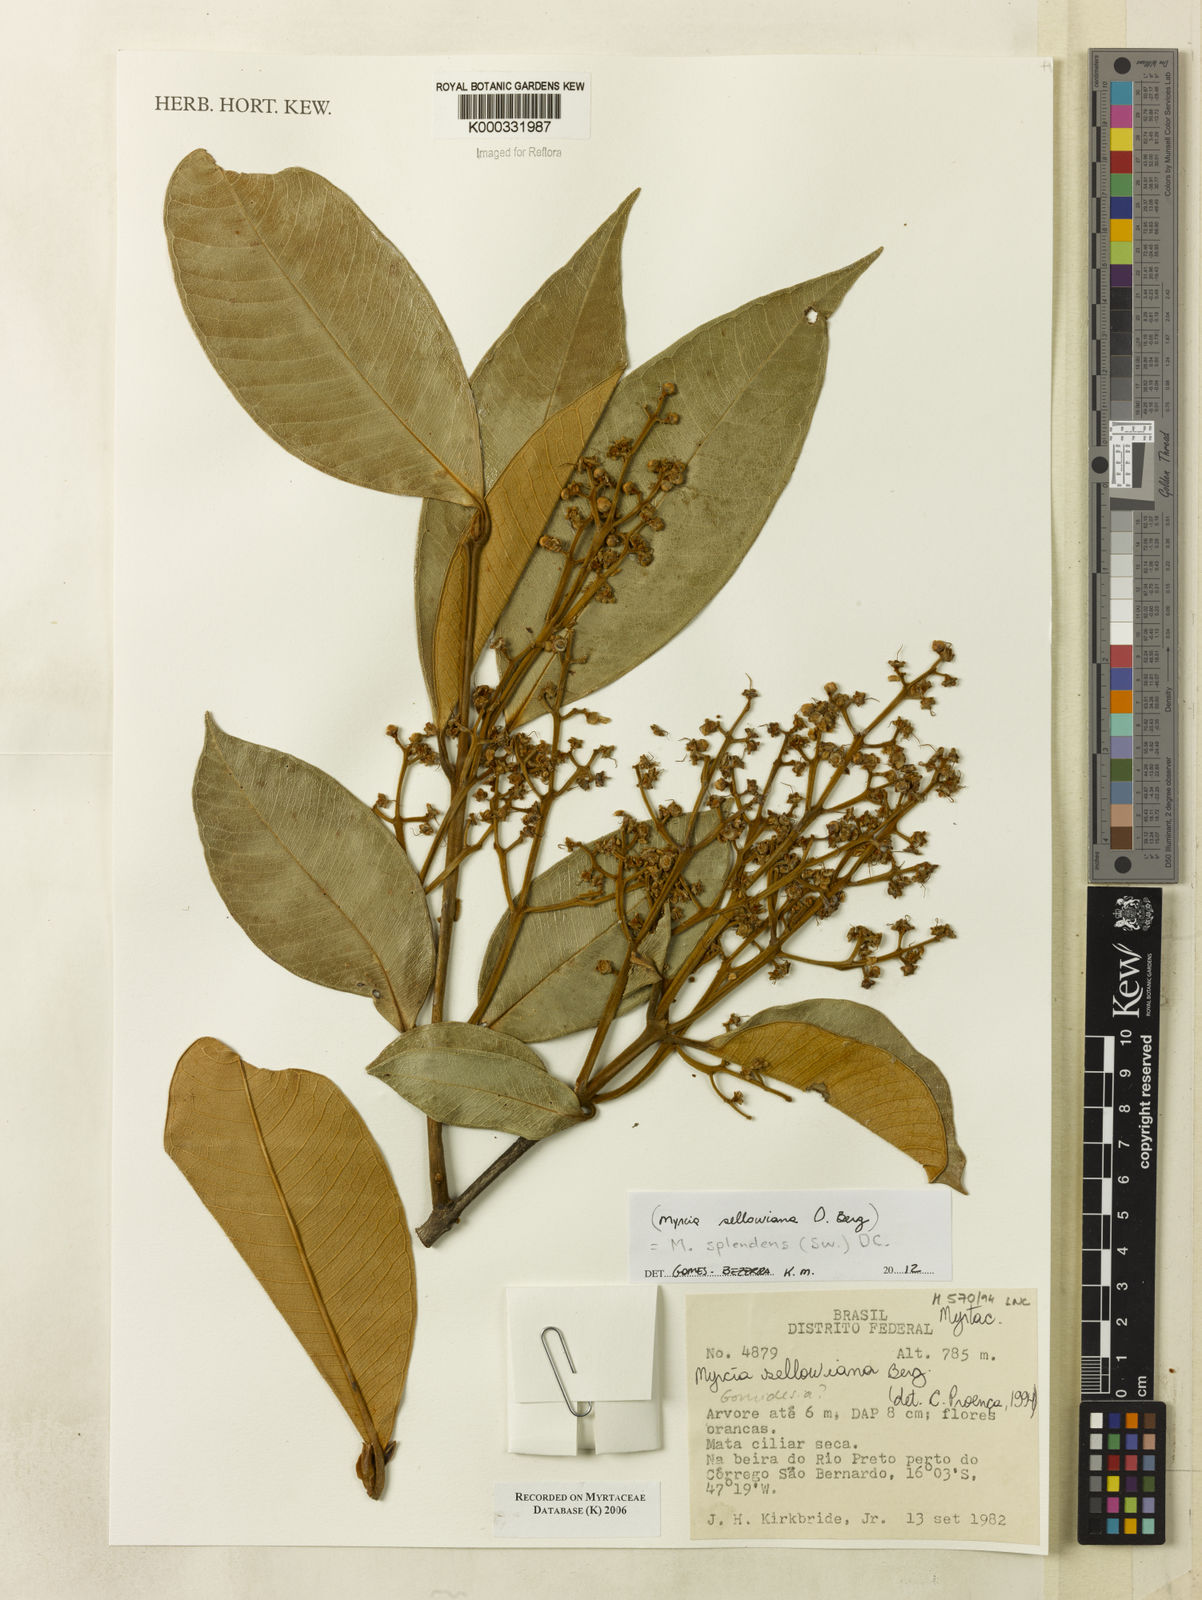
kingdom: Plantae
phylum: Tracheophyta
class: Magnoliopsida
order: Myrtales
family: Myrtaceae
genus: Myrcia
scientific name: Myrcia splendens
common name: Surinam cherry
